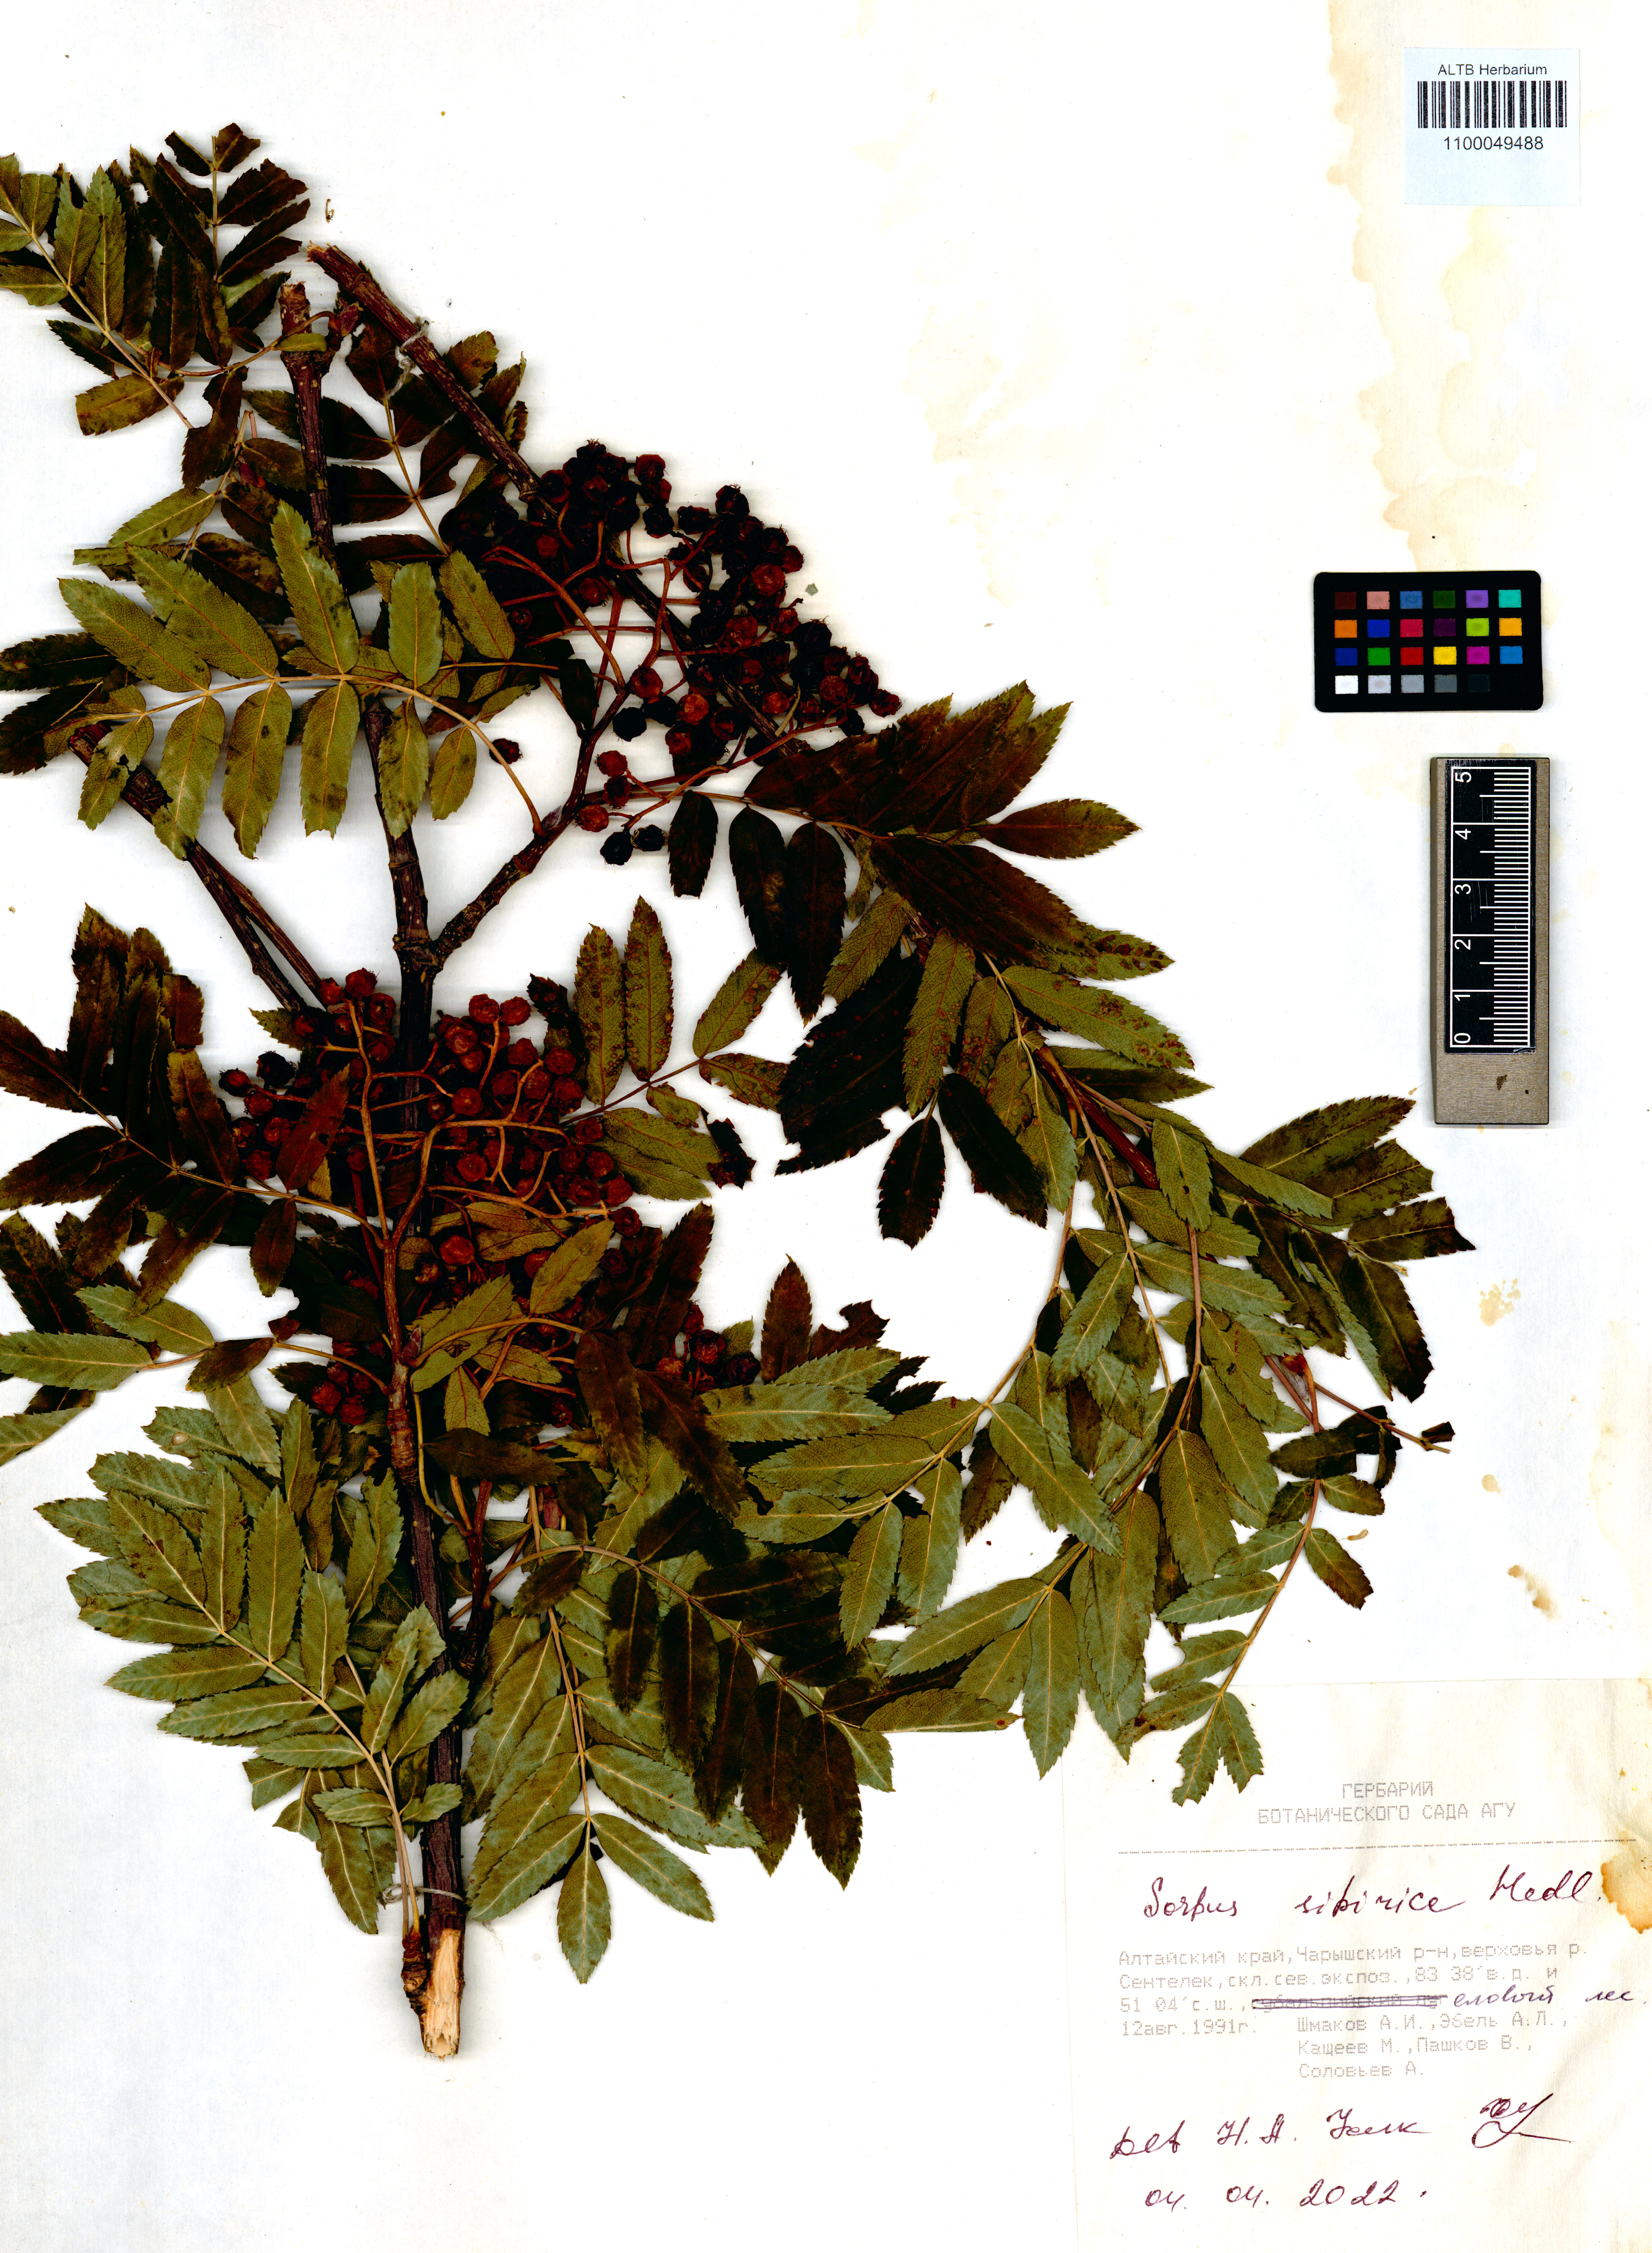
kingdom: Plantae
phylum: Tracheophyta
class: Magnoliopsida
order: Rosales
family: Rosaceae
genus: Sorbus
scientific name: Sorbus aucuparia
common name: Rowan
